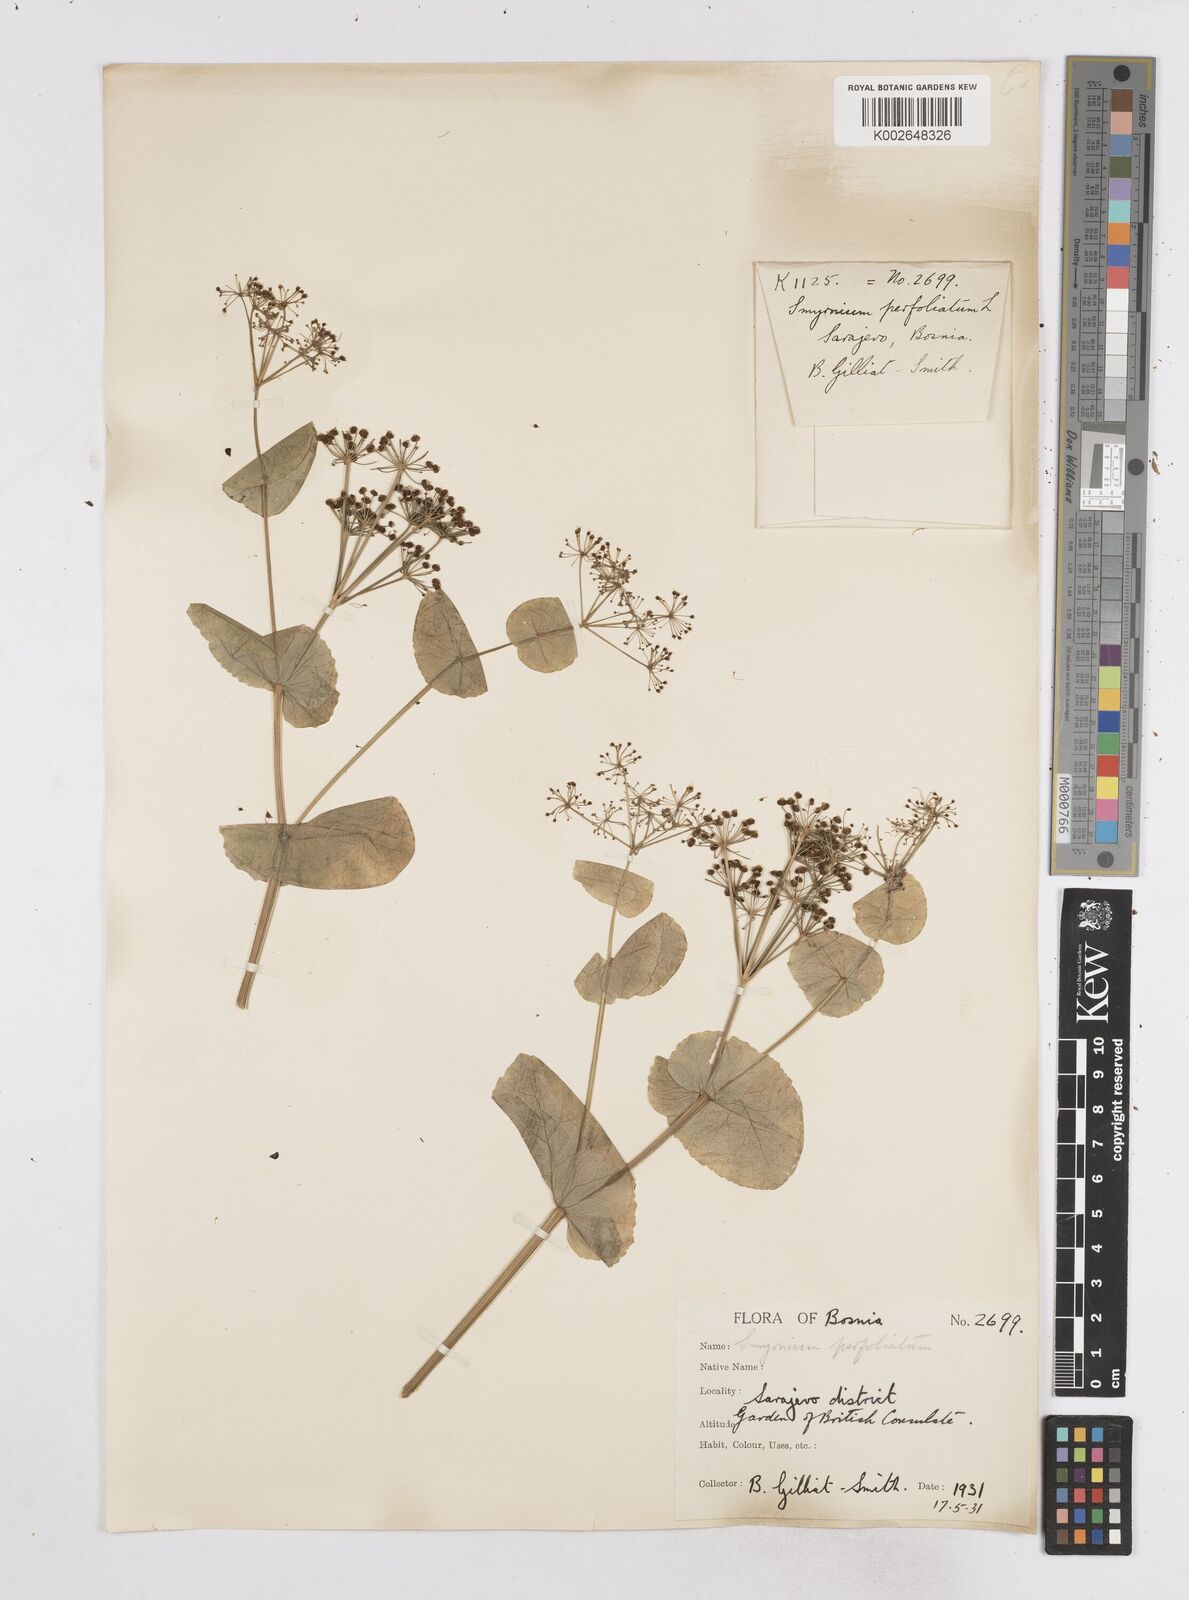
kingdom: Plantae
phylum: Tracheophyta
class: Magnoliopsida
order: Apiales
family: Apiaceae
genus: Smyrnium
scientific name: Smyrnium perfoliatum
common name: Perfoliate alexanders
